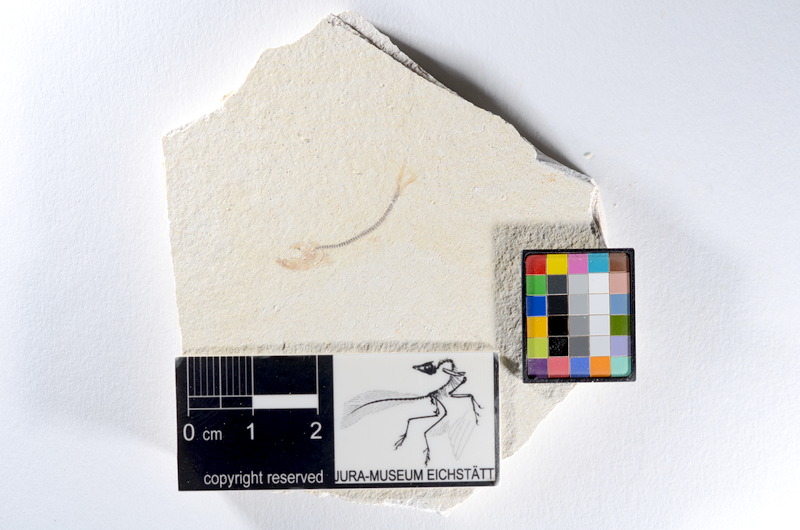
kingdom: Animalia
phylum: Chordata
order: Salmoniformes
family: Orthogonikleithridae
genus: Orthogonikleithrus
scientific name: Orthogonikleithrus hoelli
